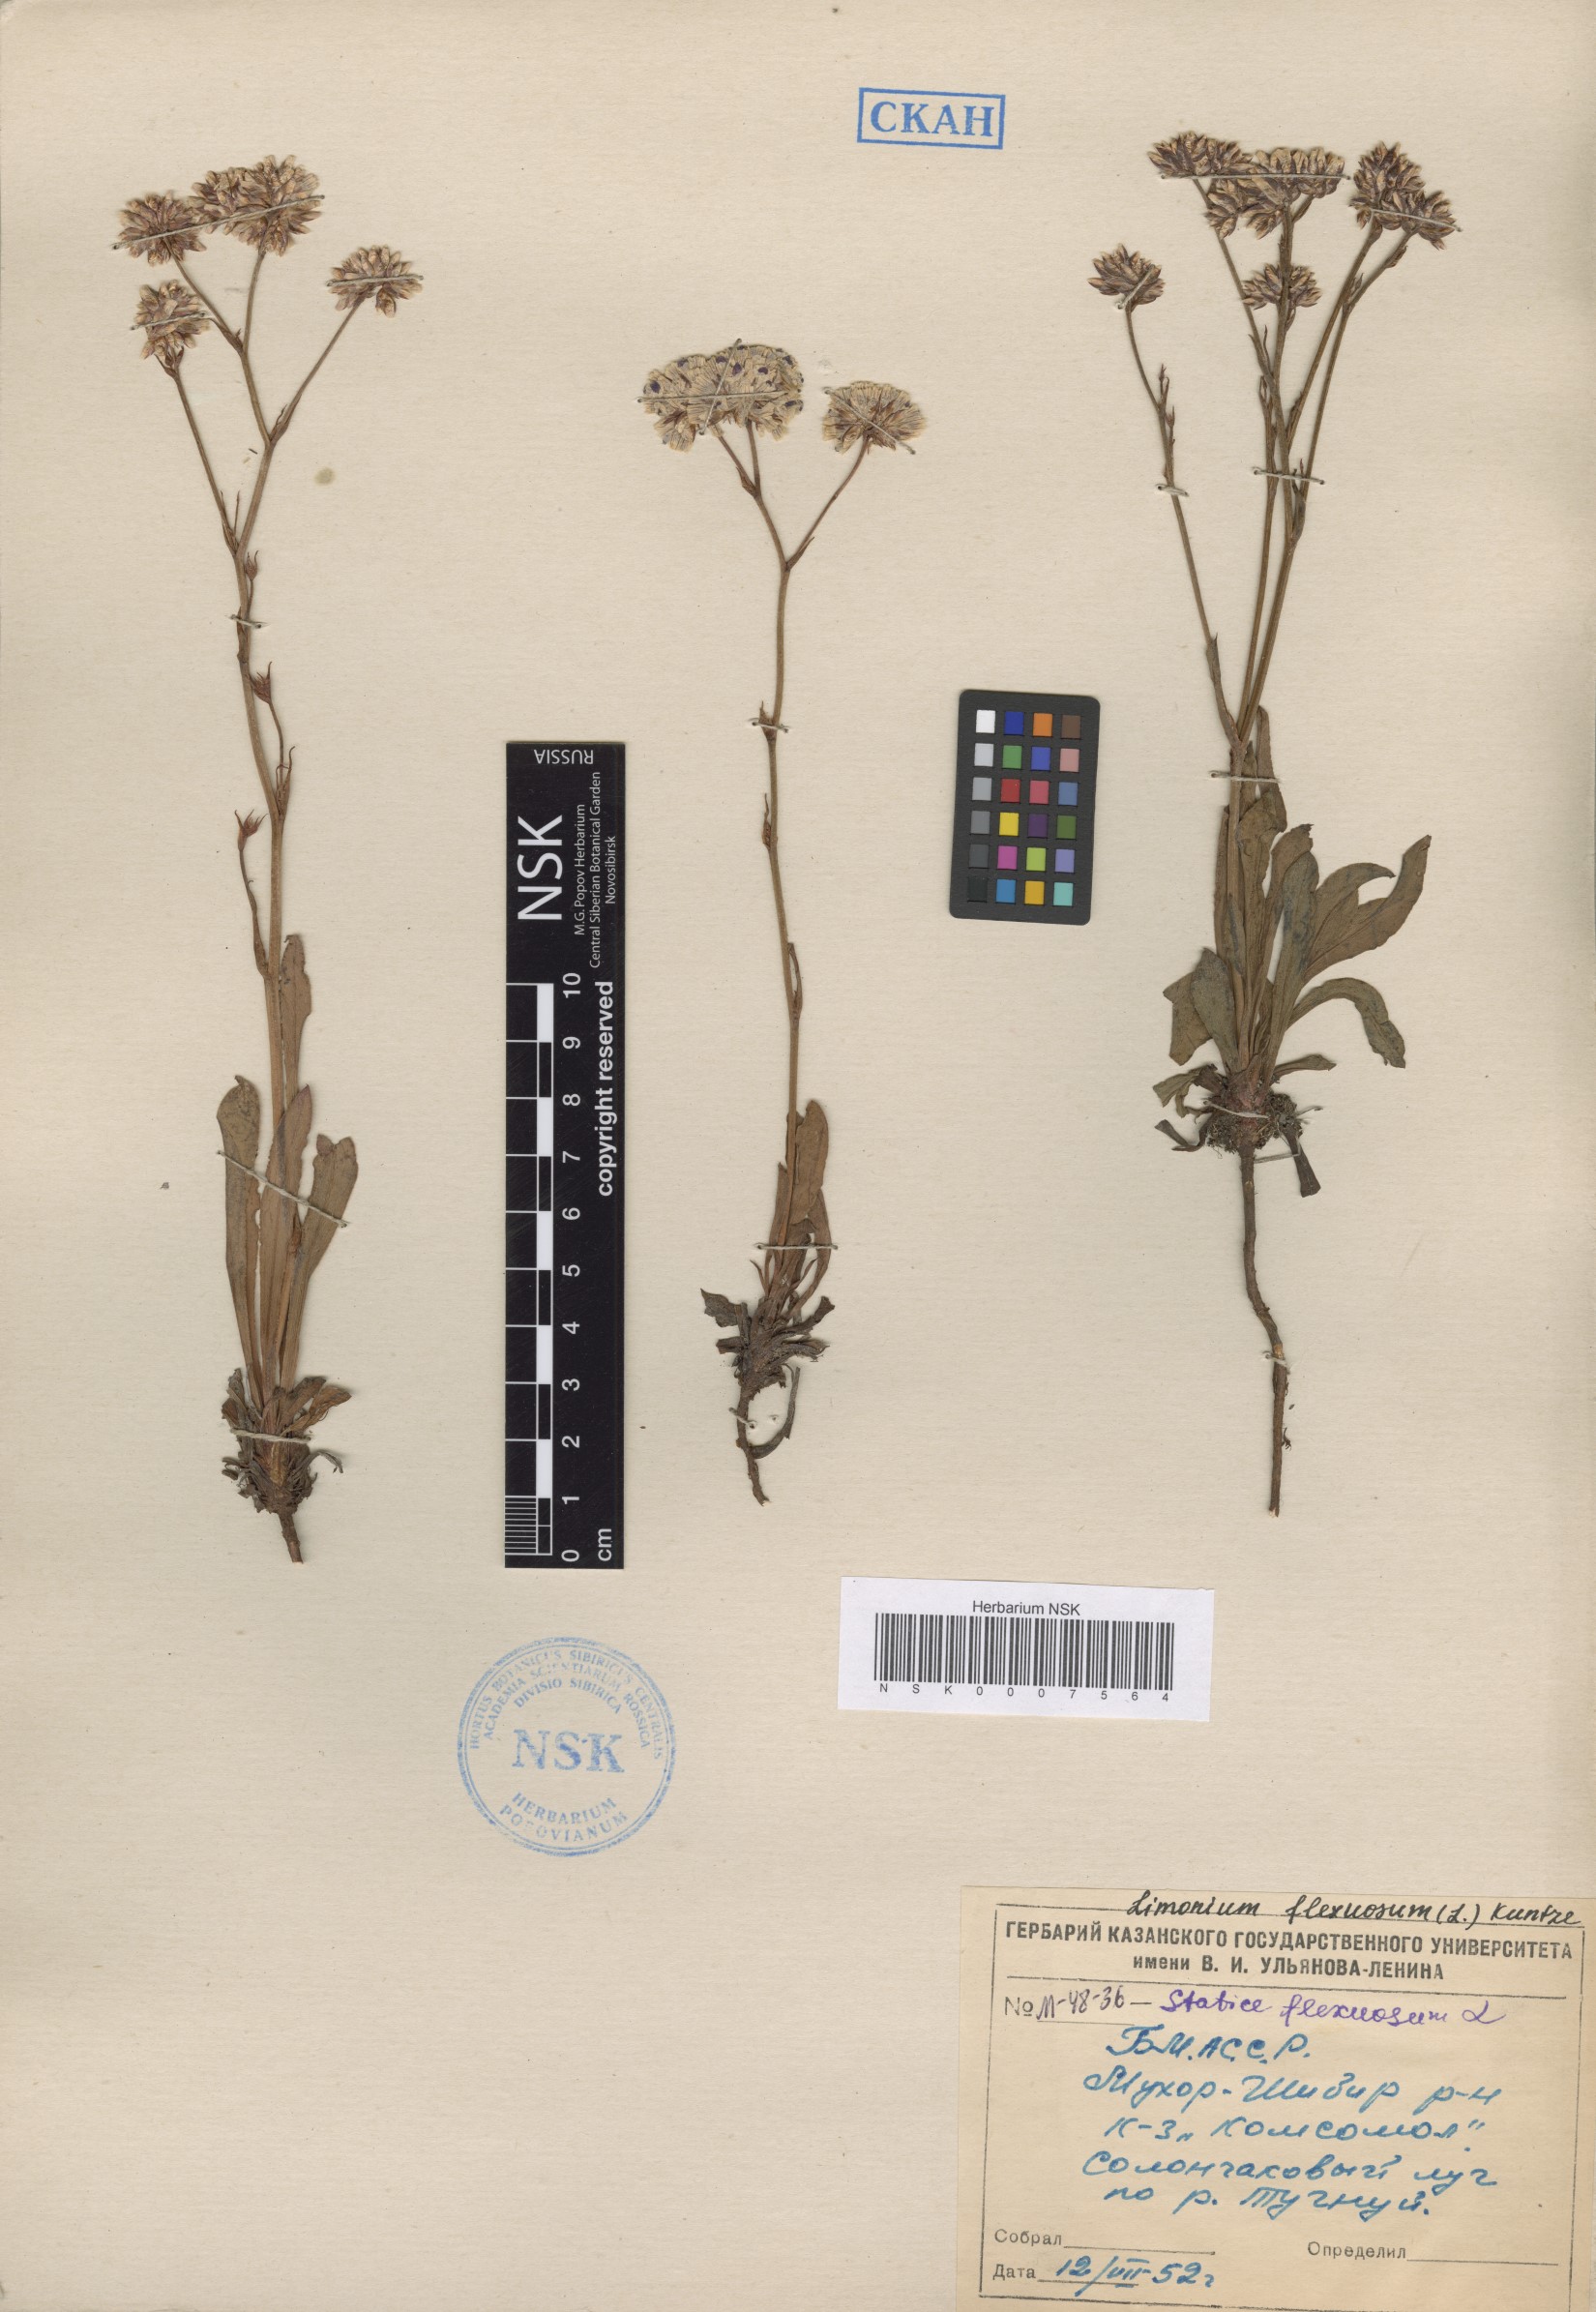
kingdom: Plantae
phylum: Tracheophyta
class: Magnoliopsida
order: Caryophyllales
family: Plumbaginaceae
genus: Limonium
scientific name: Limonium flexuosum
